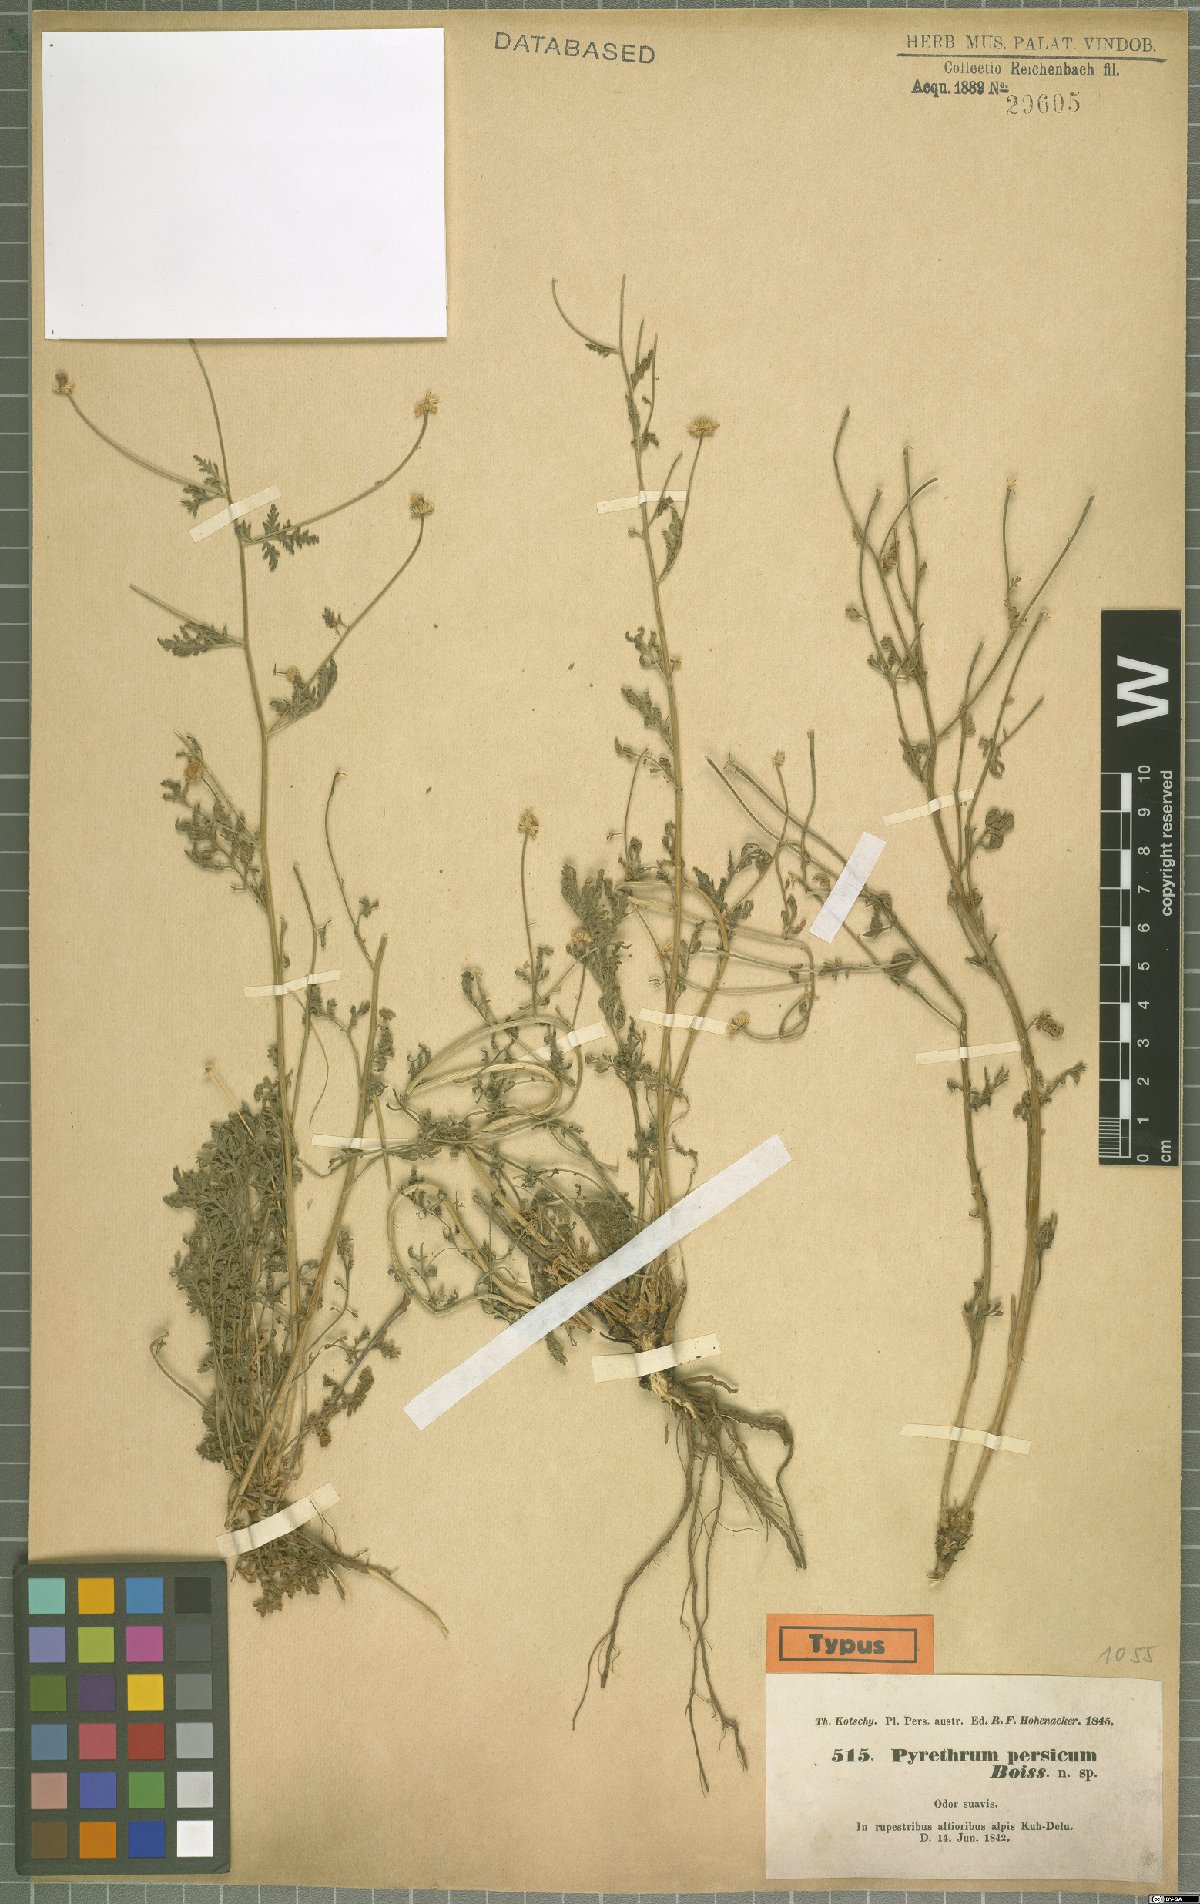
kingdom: Plantae
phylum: Tracheophyta
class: Magnoliopsida
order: Asterales
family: Asteraceae
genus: Tanacetum
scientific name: Tanacetum parthenium
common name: Feverfew
